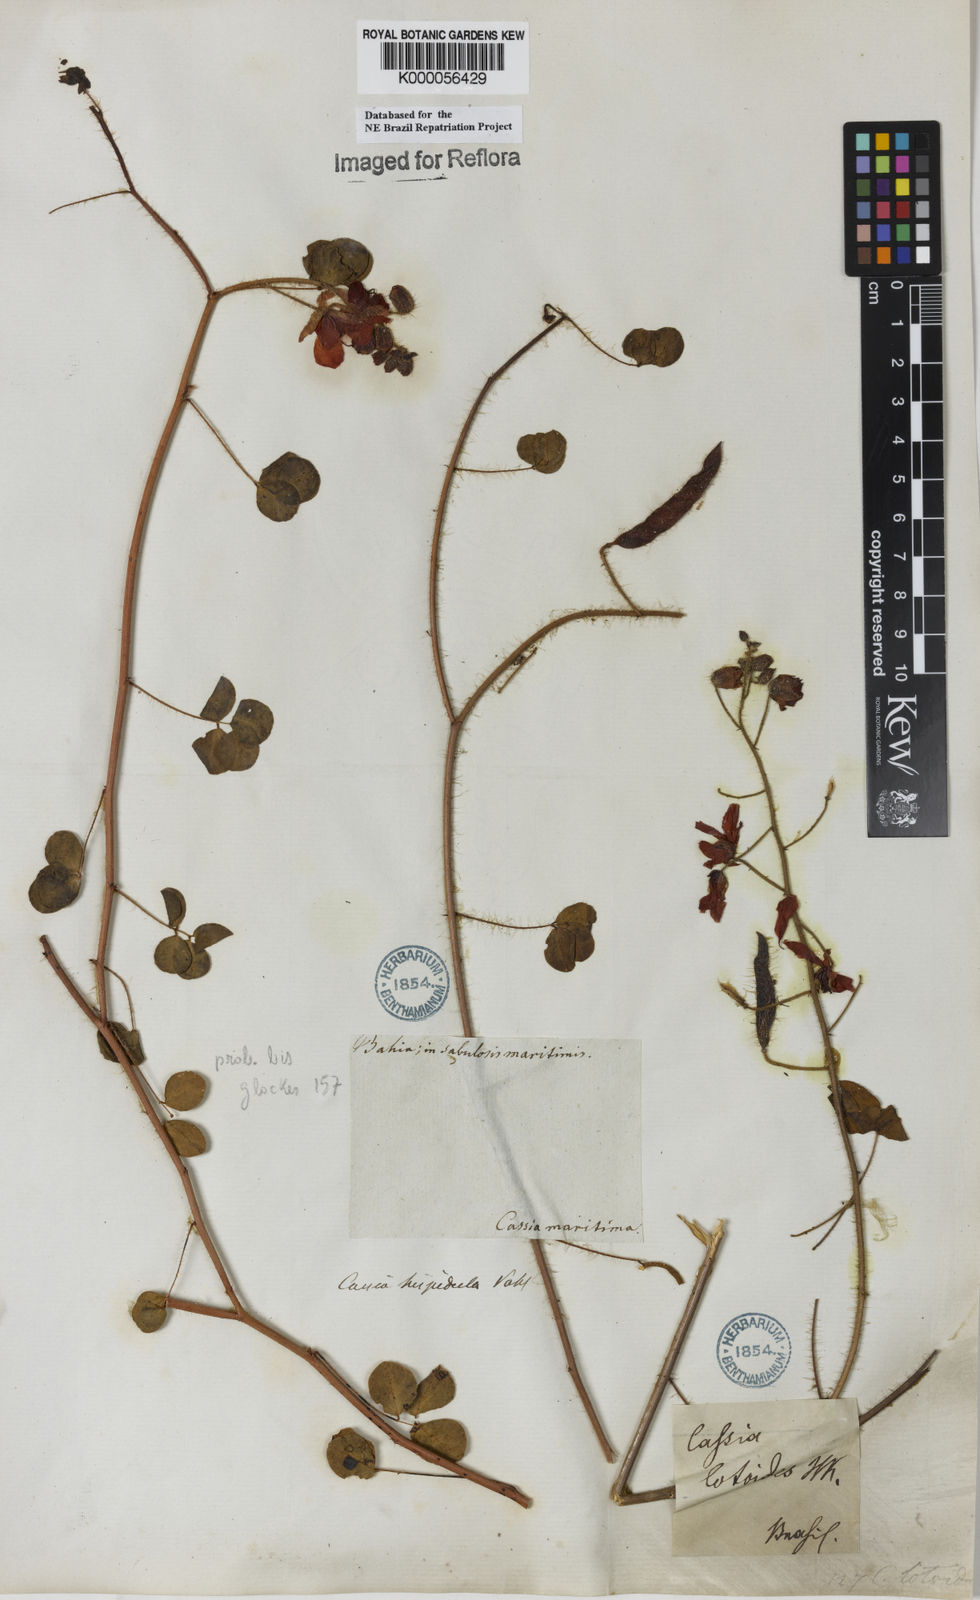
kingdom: Plantae
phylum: Tracheophyta
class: Magnoliopsida
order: Fabales
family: Fabaceae
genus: Chamaecrista
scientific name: Chamaecrista hispidula
